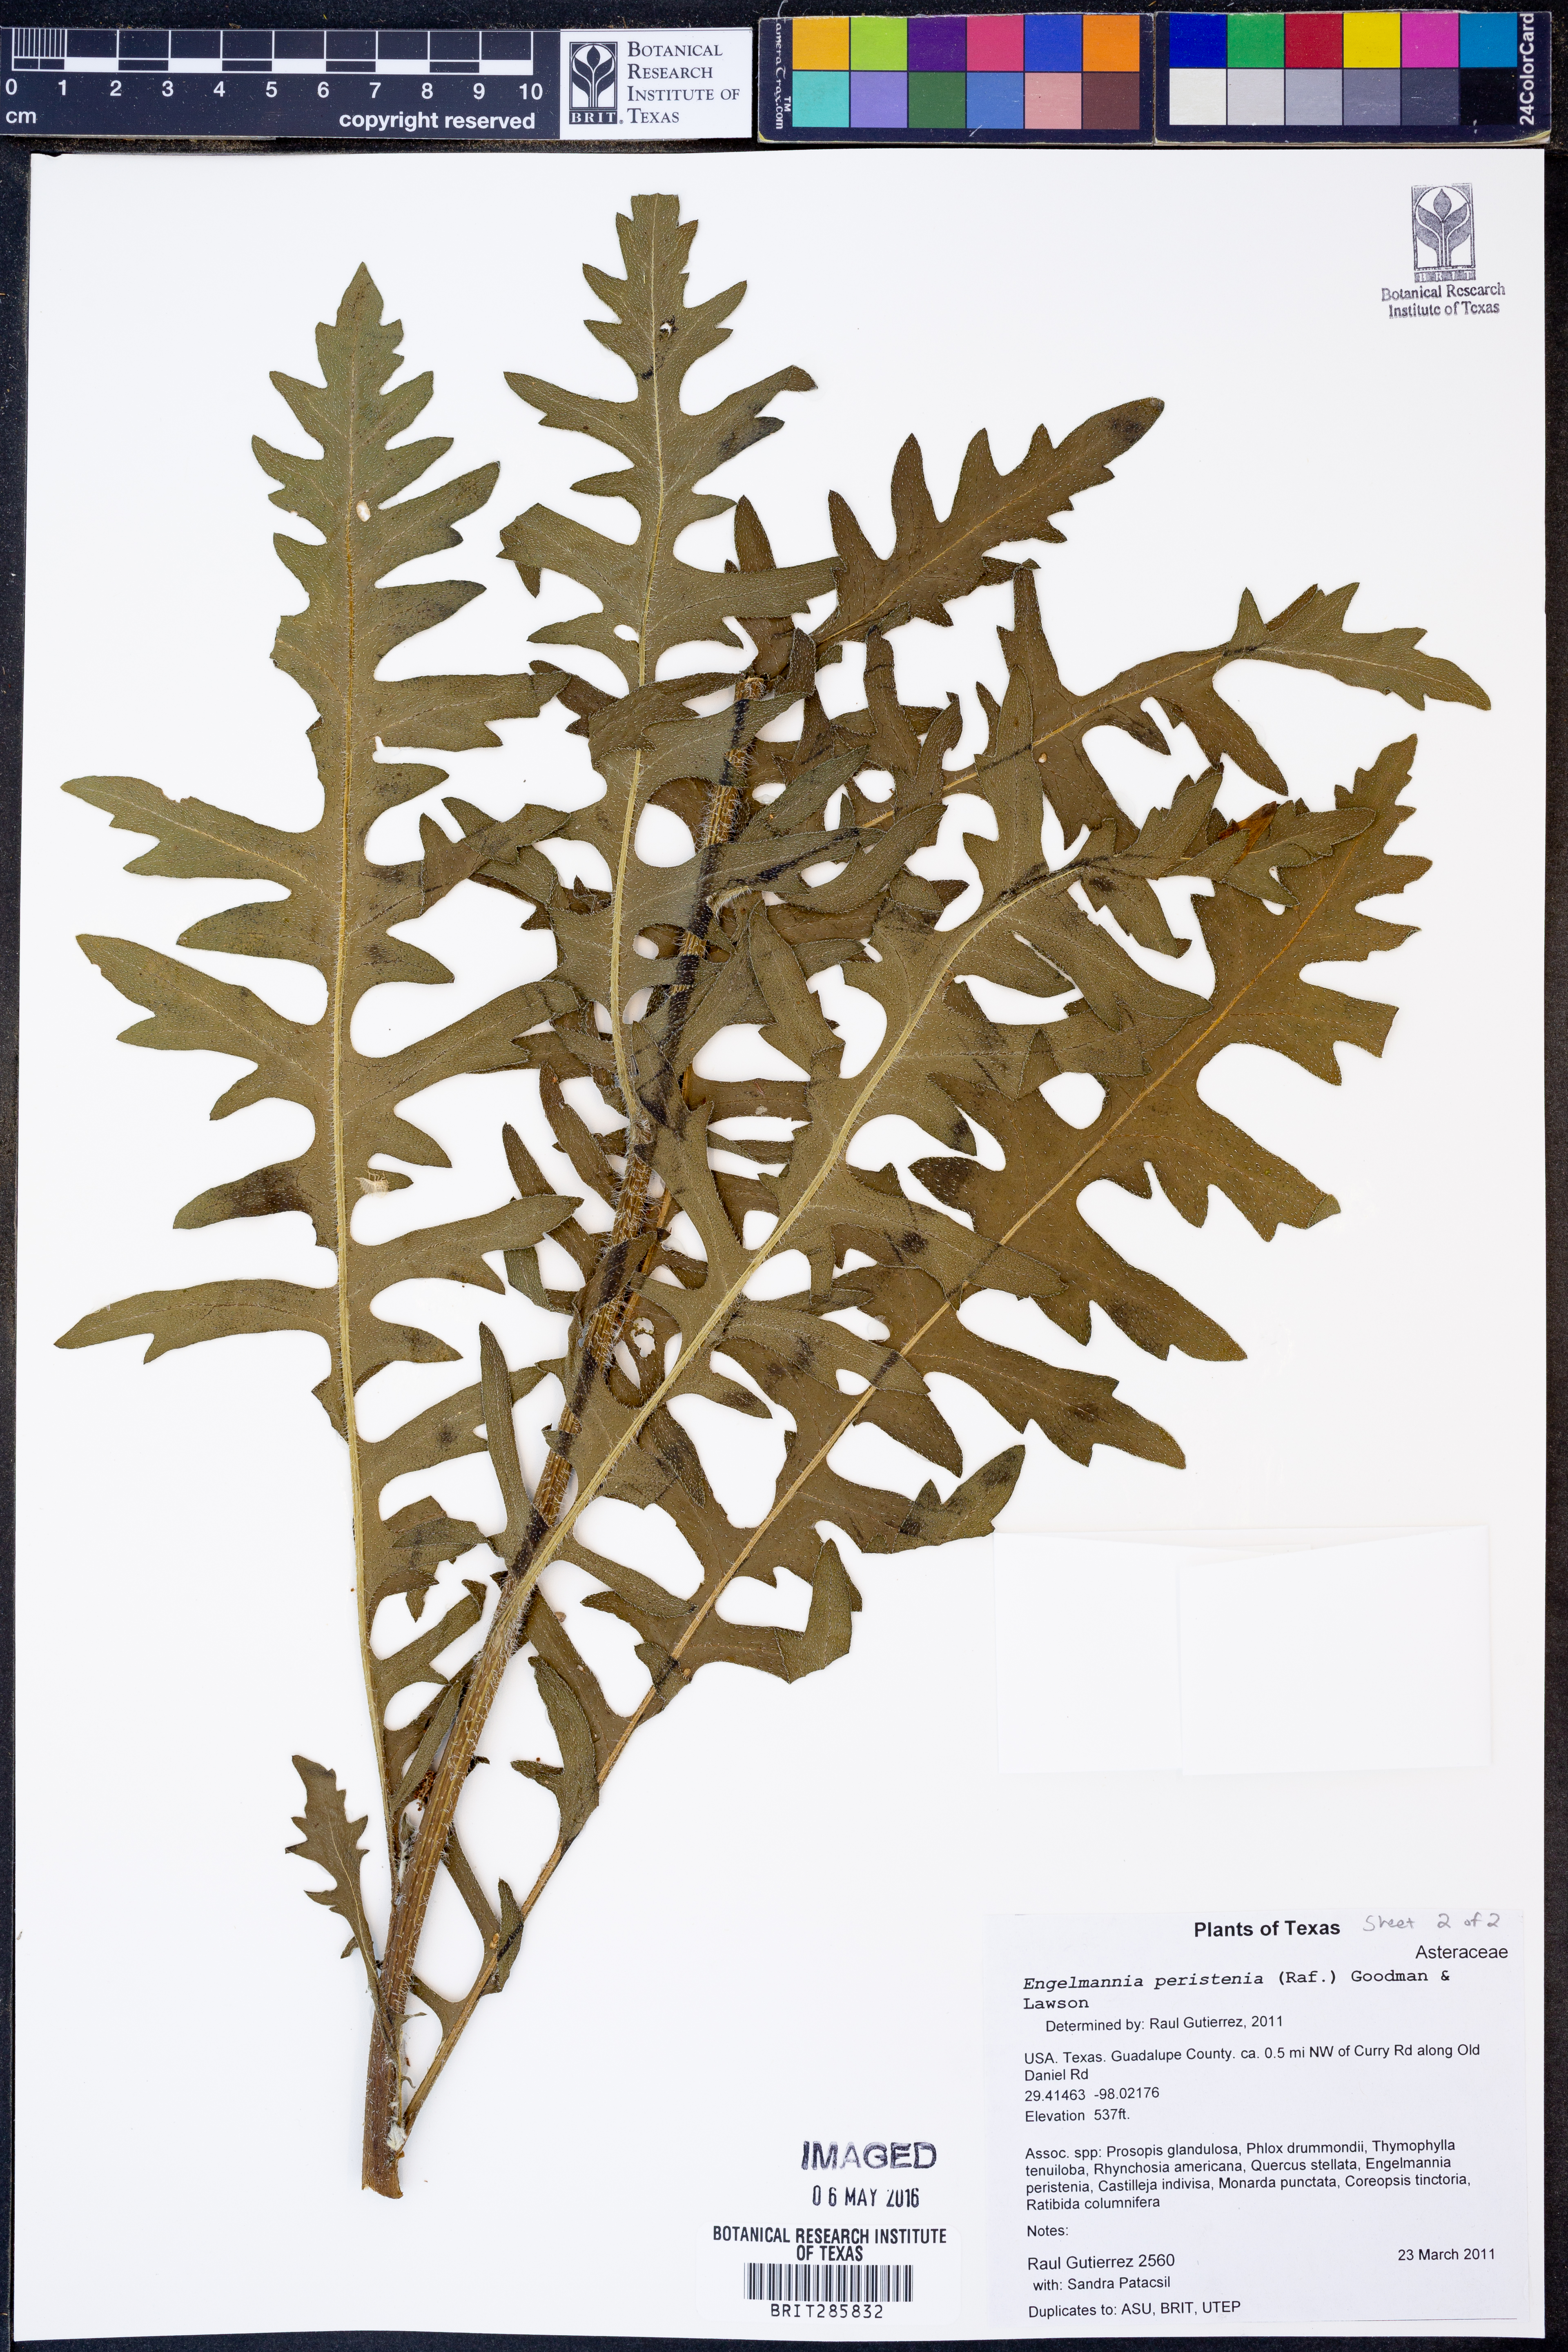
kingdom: Plantae
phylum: Tracheophyta
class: Magnoliopsida
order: Asterales
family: Asteraceae
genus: Engelmannia
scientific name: Engelmannia peristenia
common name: Engelmann's daisy
